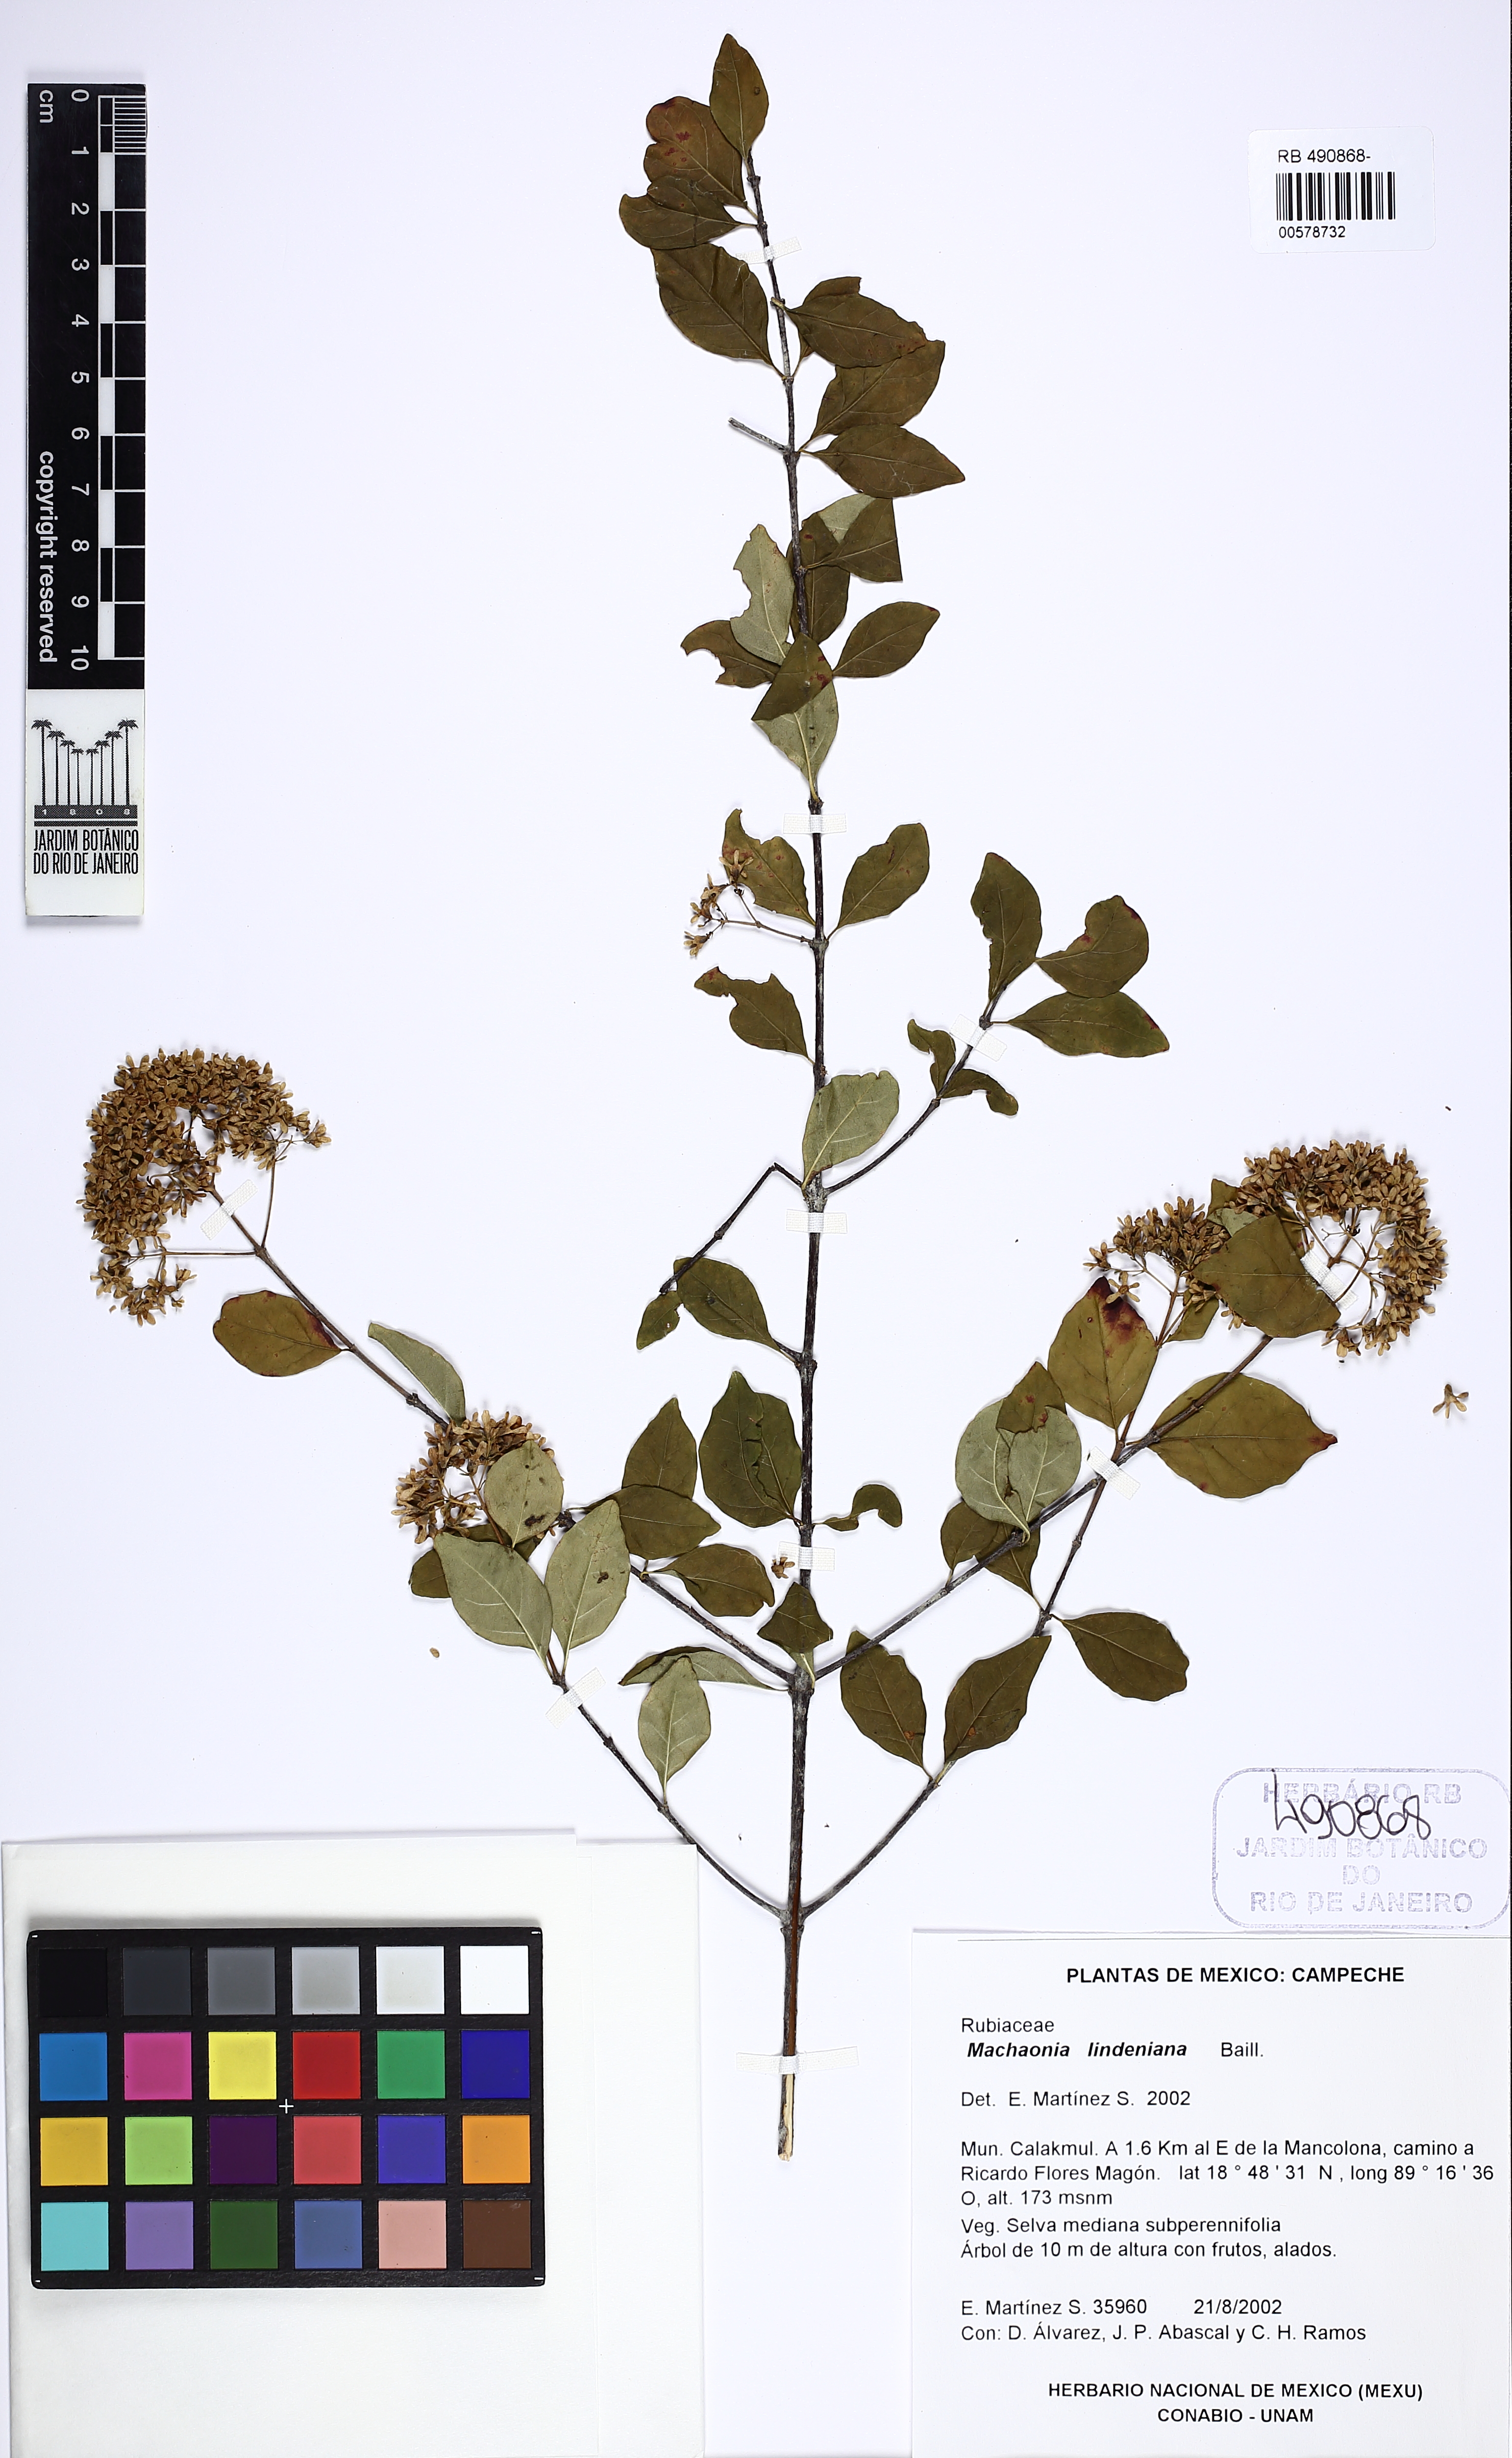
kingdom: Plantae
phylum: Tracheophyta
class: Magnoliopsida
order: Gentianales
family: Rubiaceae
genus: Machaonia
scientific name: Machaonia lindeniana
